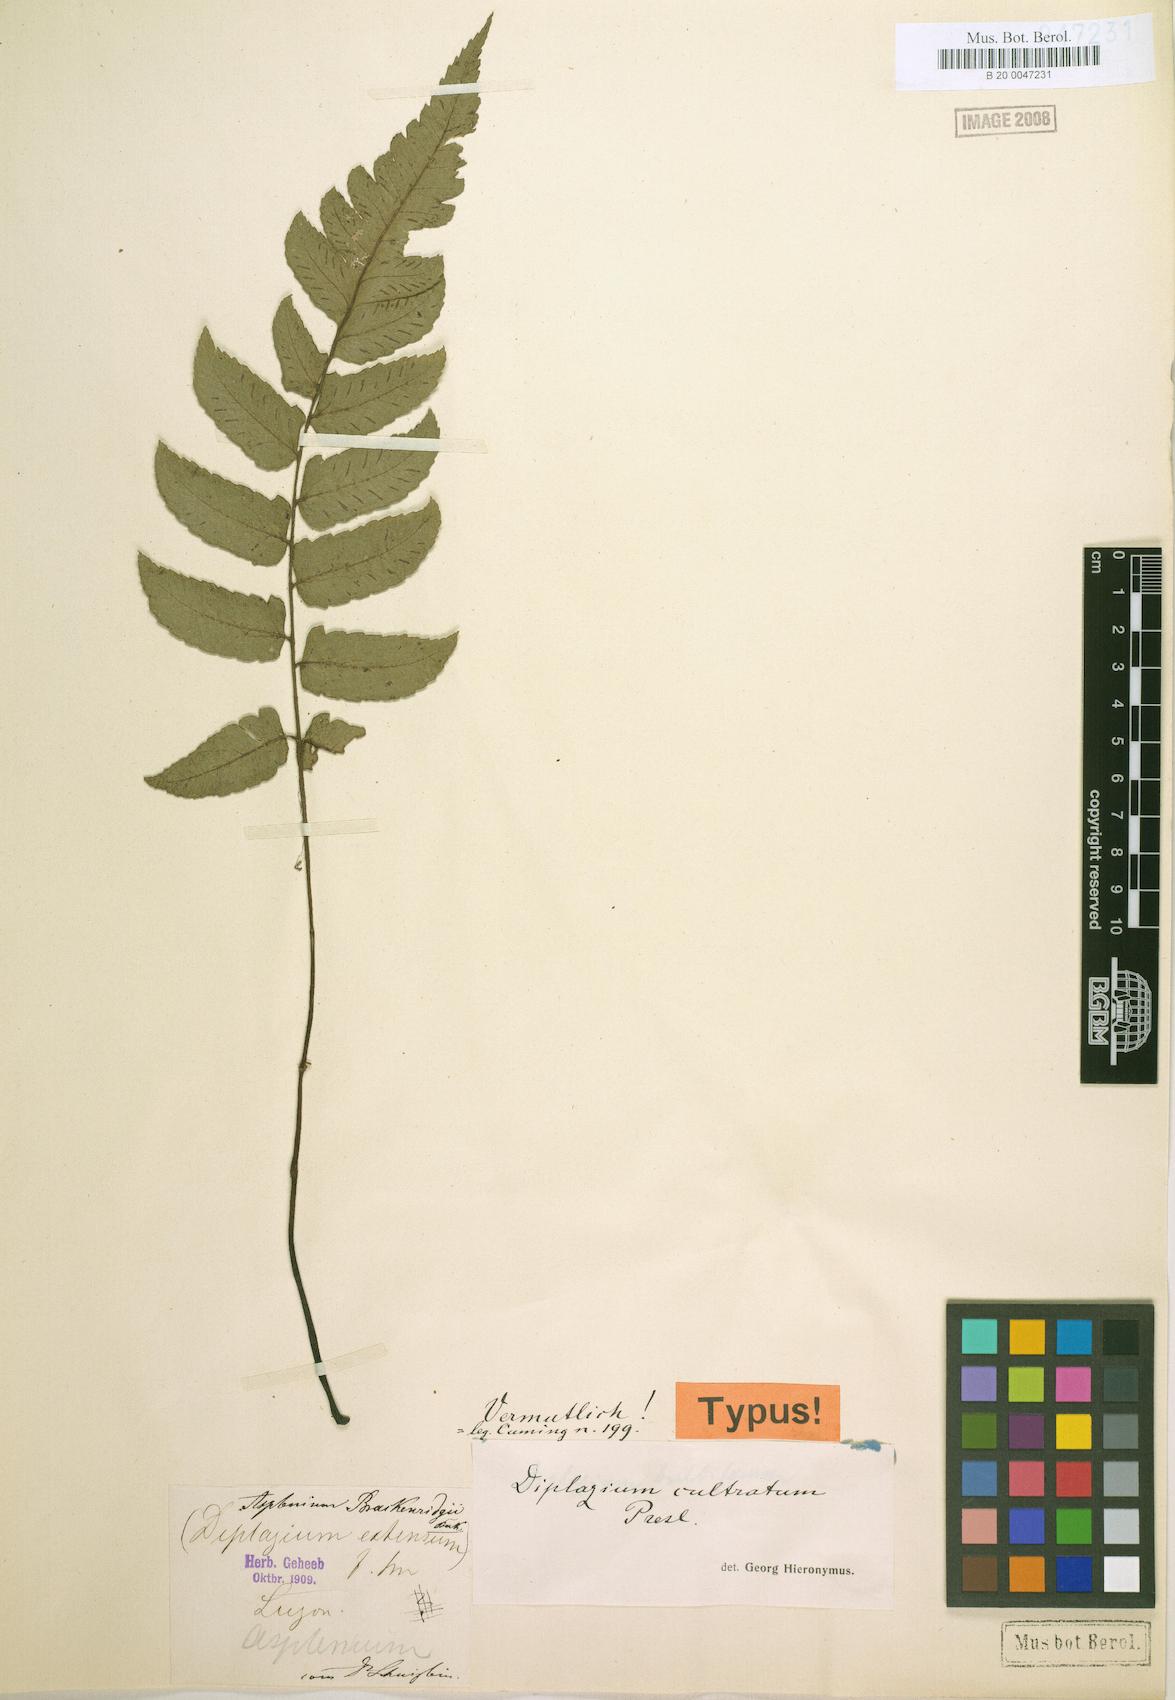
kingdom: Plantae
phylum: Tracheophyta
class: Polypodiopsida
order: Polypodiales
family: Athyriaceae
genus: Diplazium
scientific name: Diplazium cultratum
